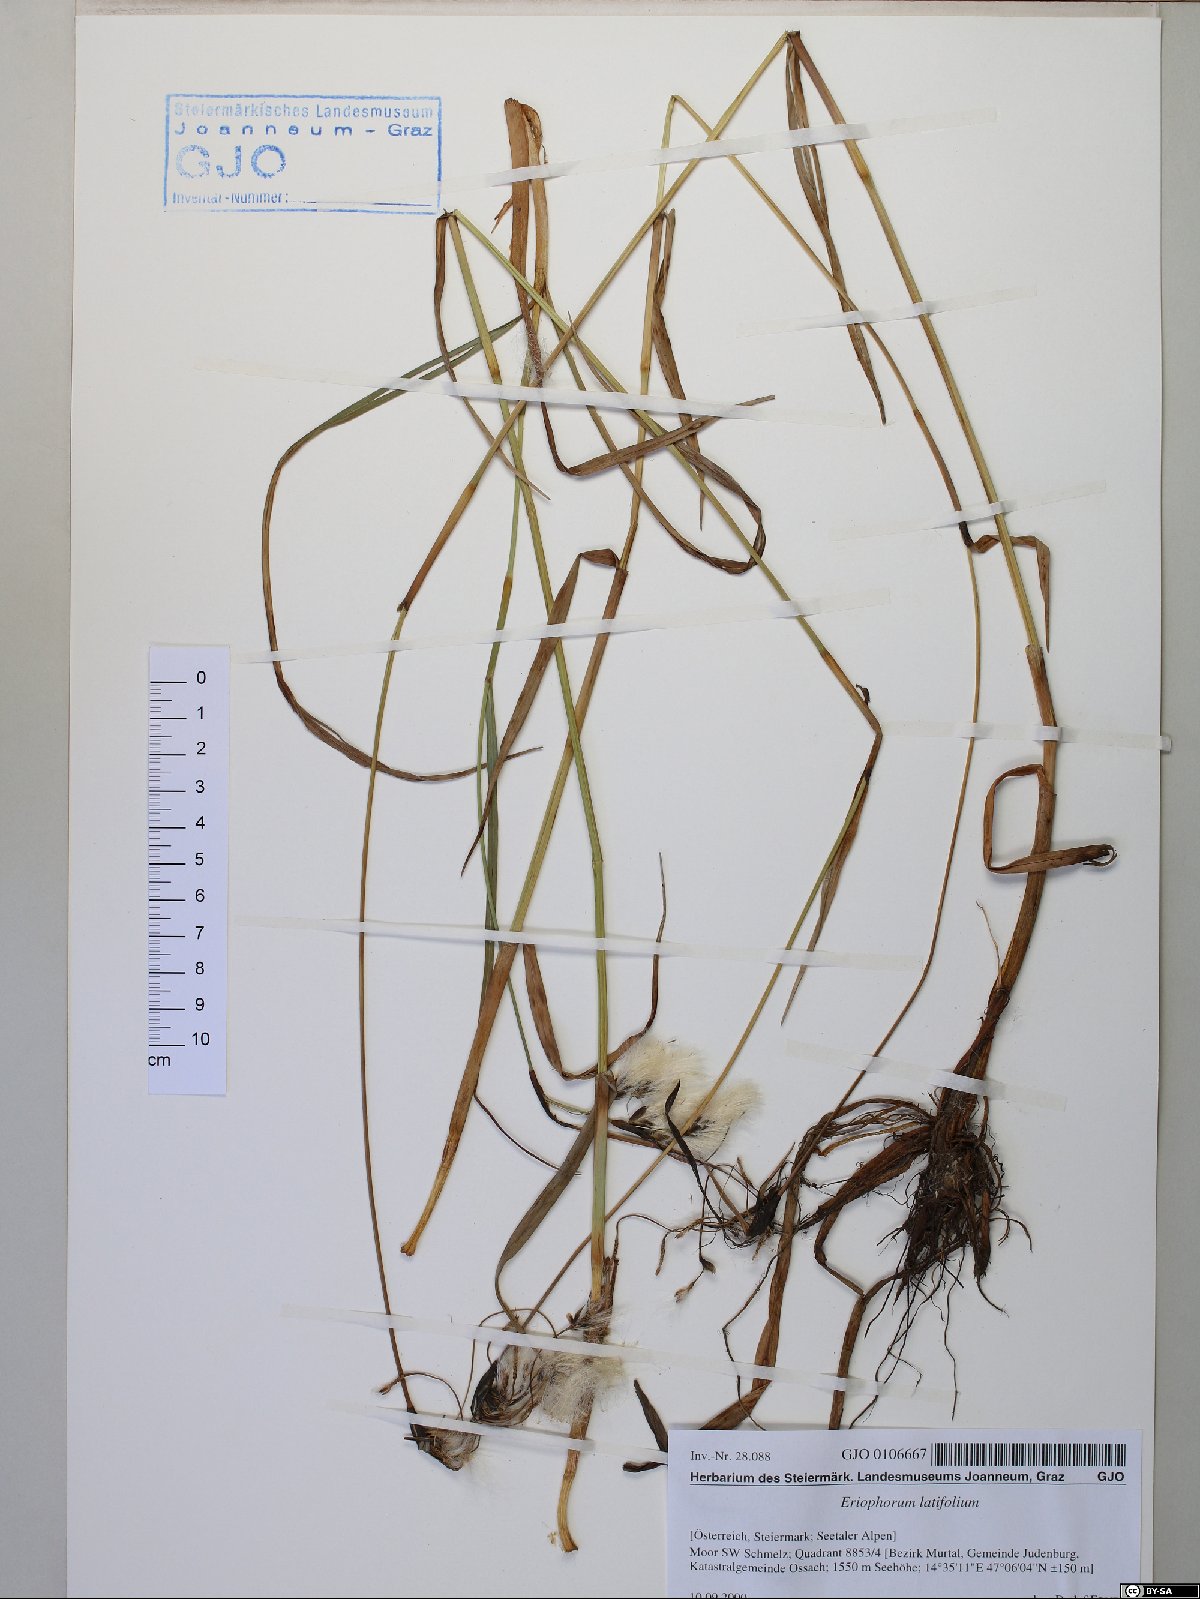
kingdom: Plantae
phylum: Tracheophyta
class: Liliopsida
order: Poales
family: Cyperaceae
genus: Eriophorum
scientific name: Eriophorum latifolium
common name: Broad-leaved cottongrass
